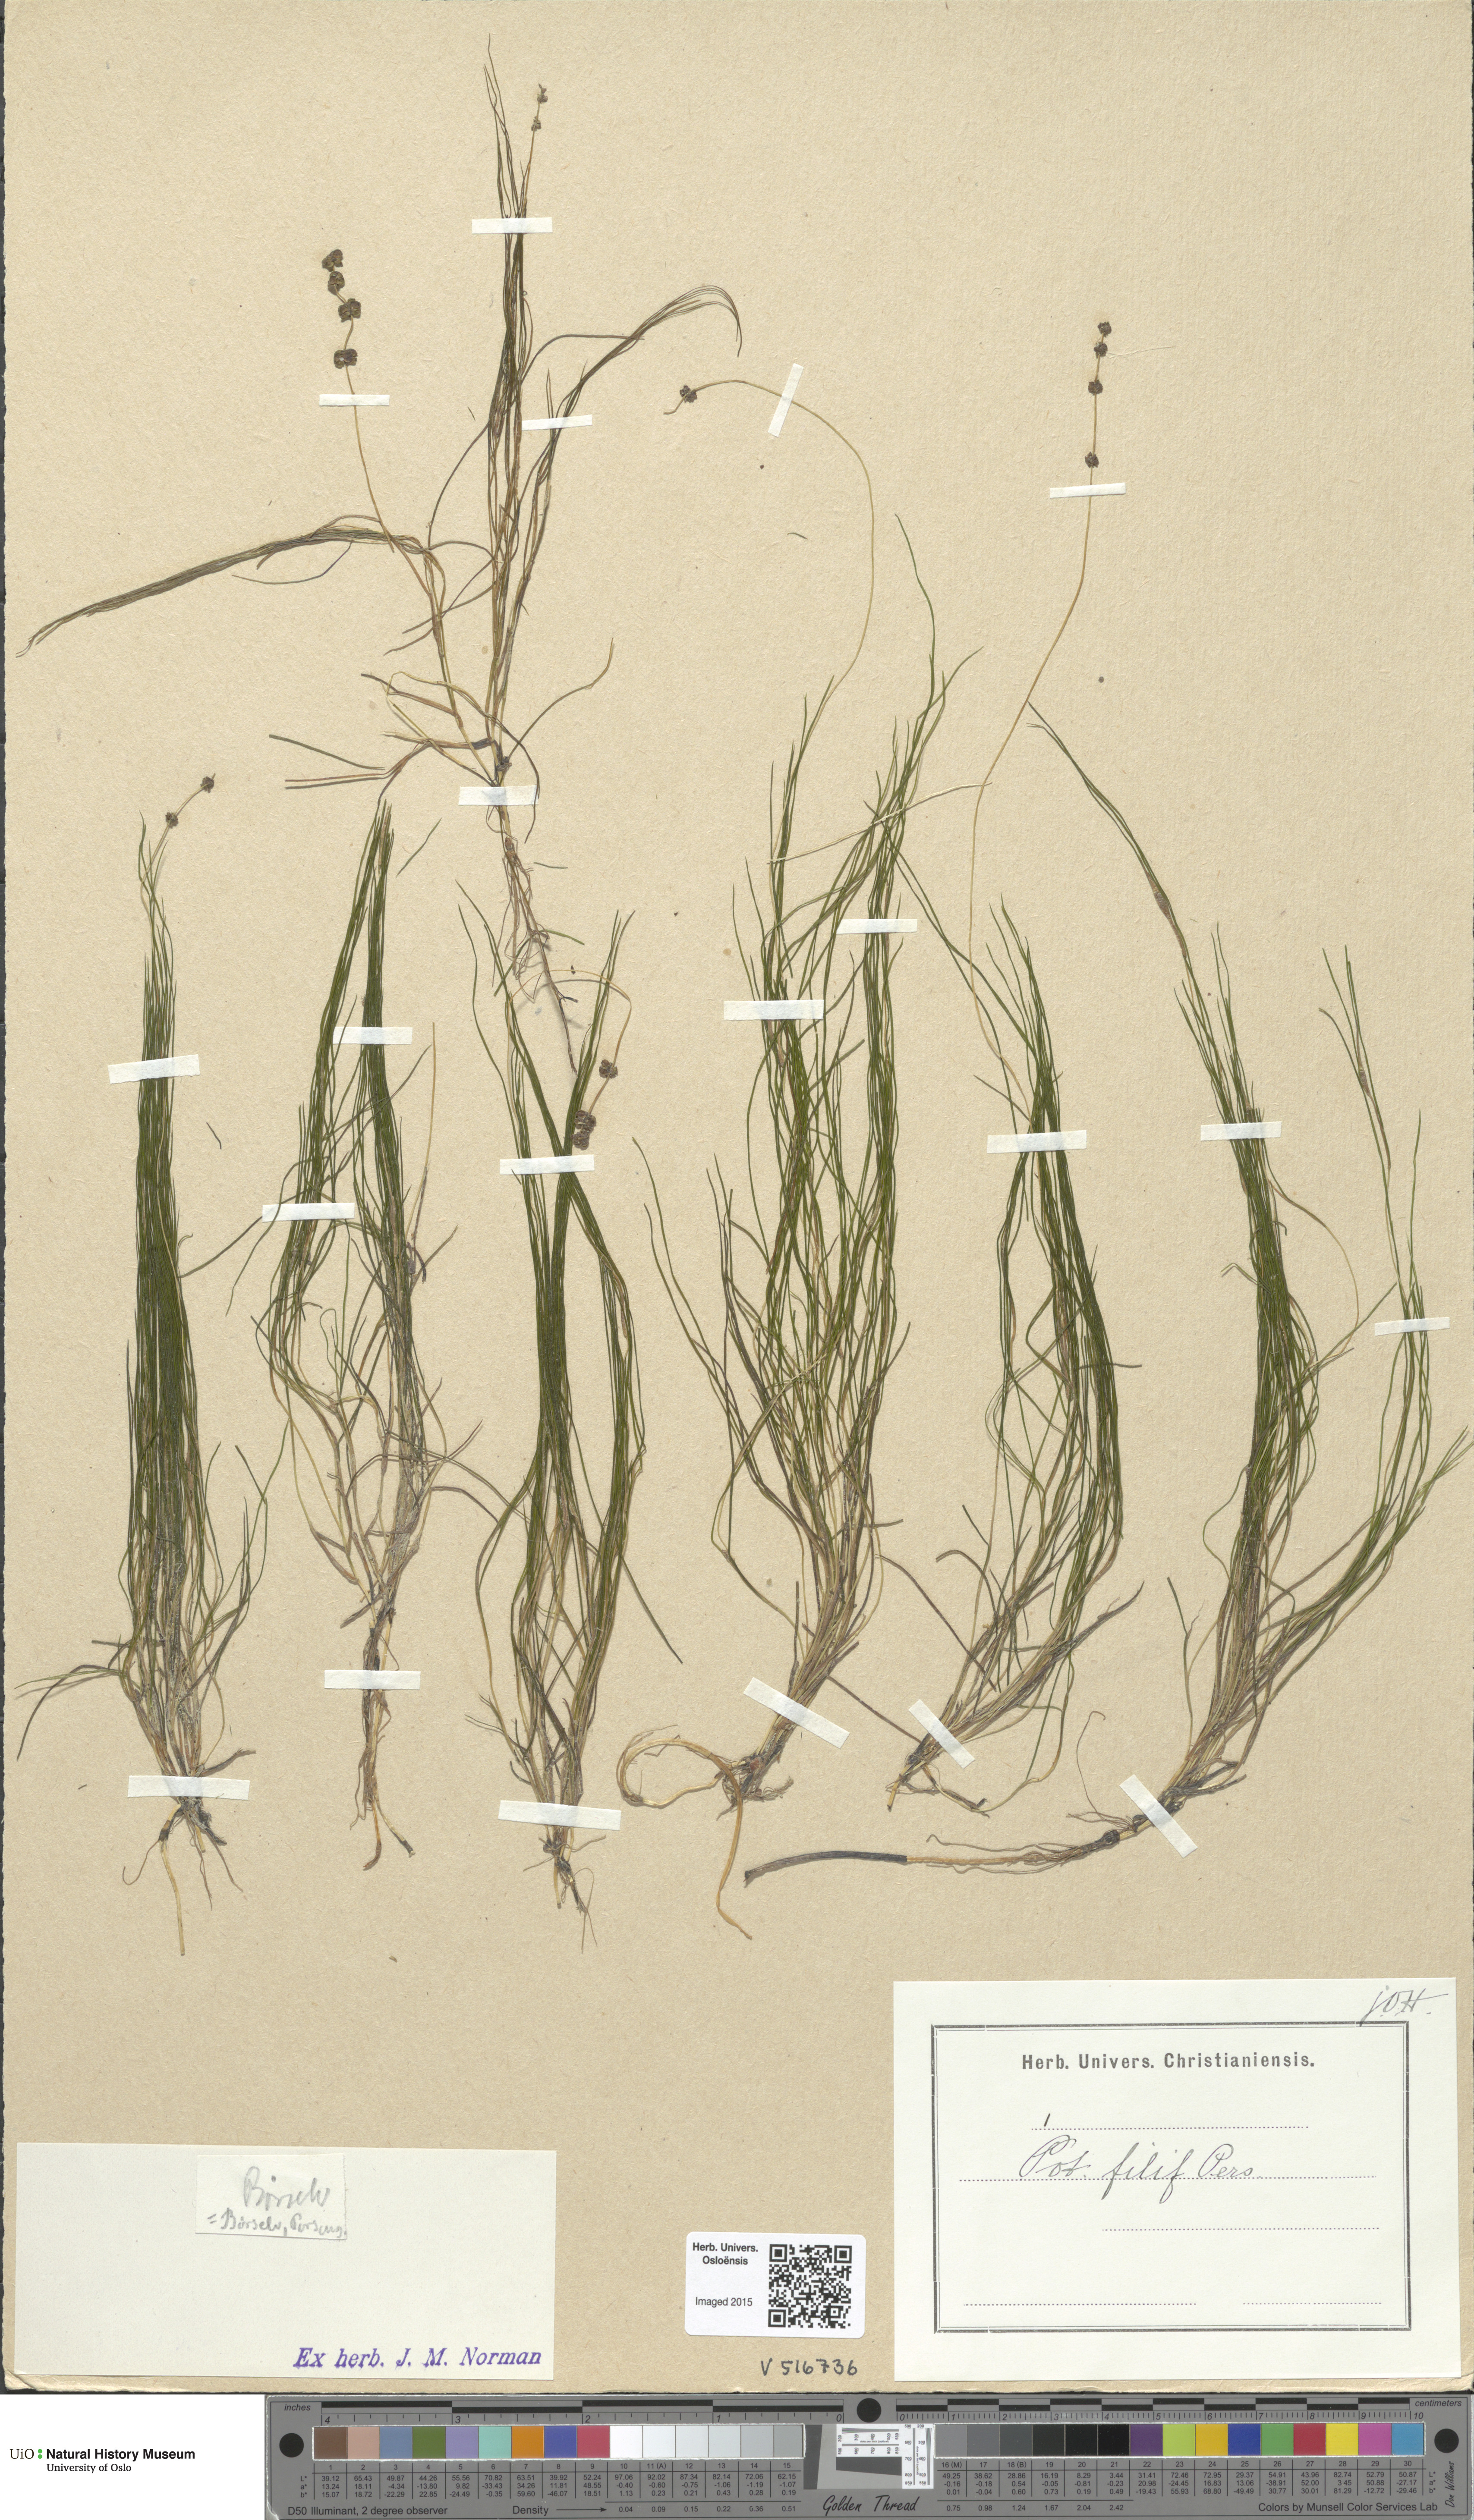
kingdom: Plantae
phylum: Tracheophyta
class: Liliopsida
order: Alismatales
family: Potamogetonaceae
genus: Stuckenia
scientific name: Stuckenia filiformis
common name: Alpine thread-leaved pondweed
